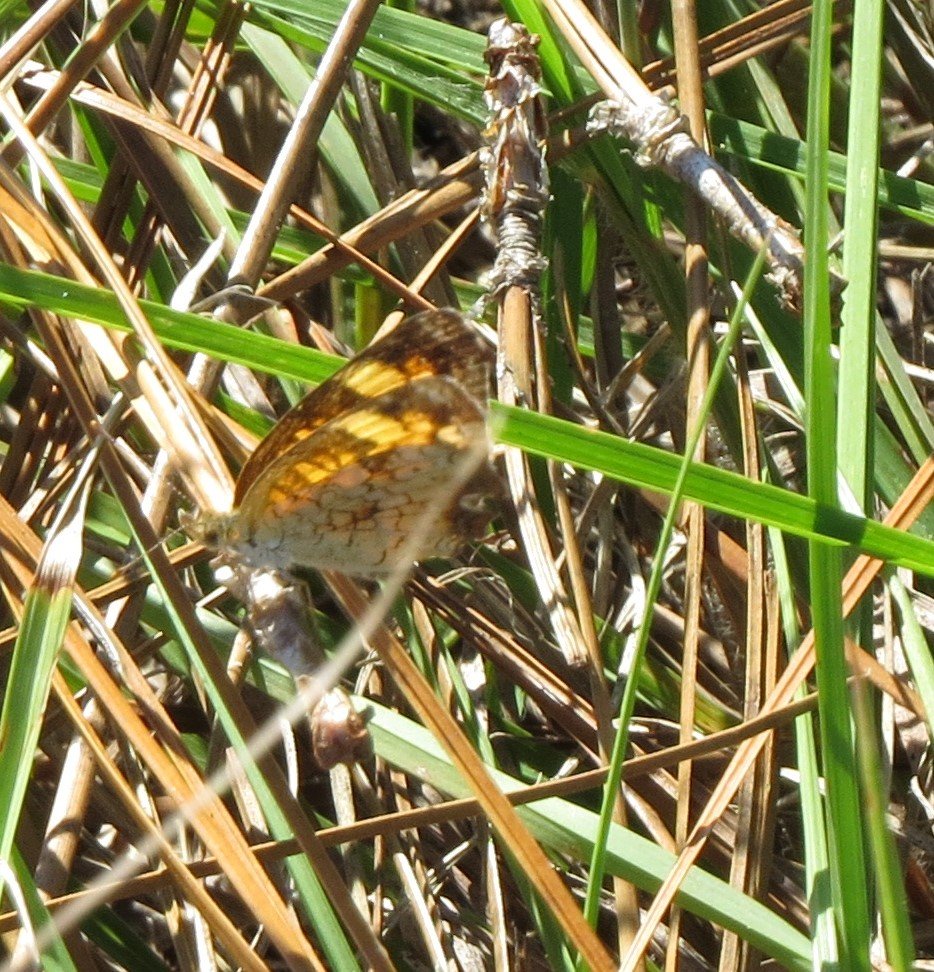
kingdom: Animalia
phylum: Arthropoda
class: Insecta
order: Lepidoptera
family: Nymphalidae
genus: Phyciodes
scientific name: Phyciodes tharos
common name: Pearl Crescent
